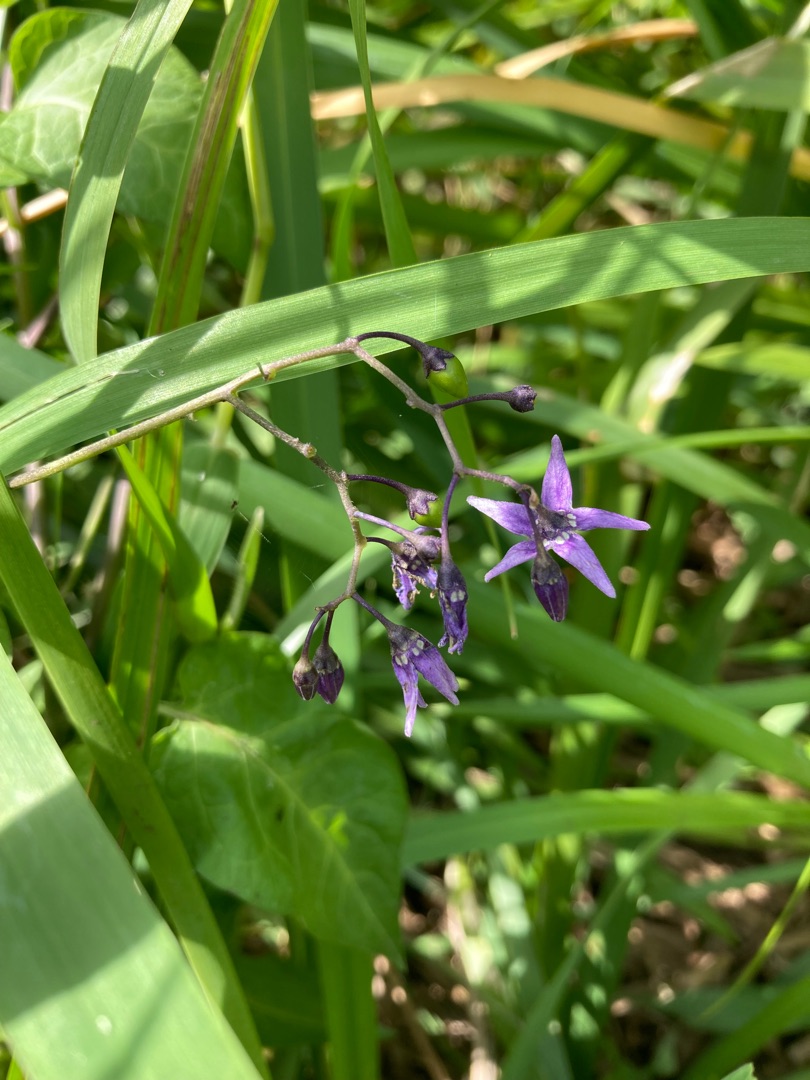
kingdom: Plantae
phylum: Tracheophyta
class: Magnoliopsida
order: Solanales
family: Solanaceae
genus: Solanum
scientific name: Solanum dulcamara
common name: Bittersød natskygge
